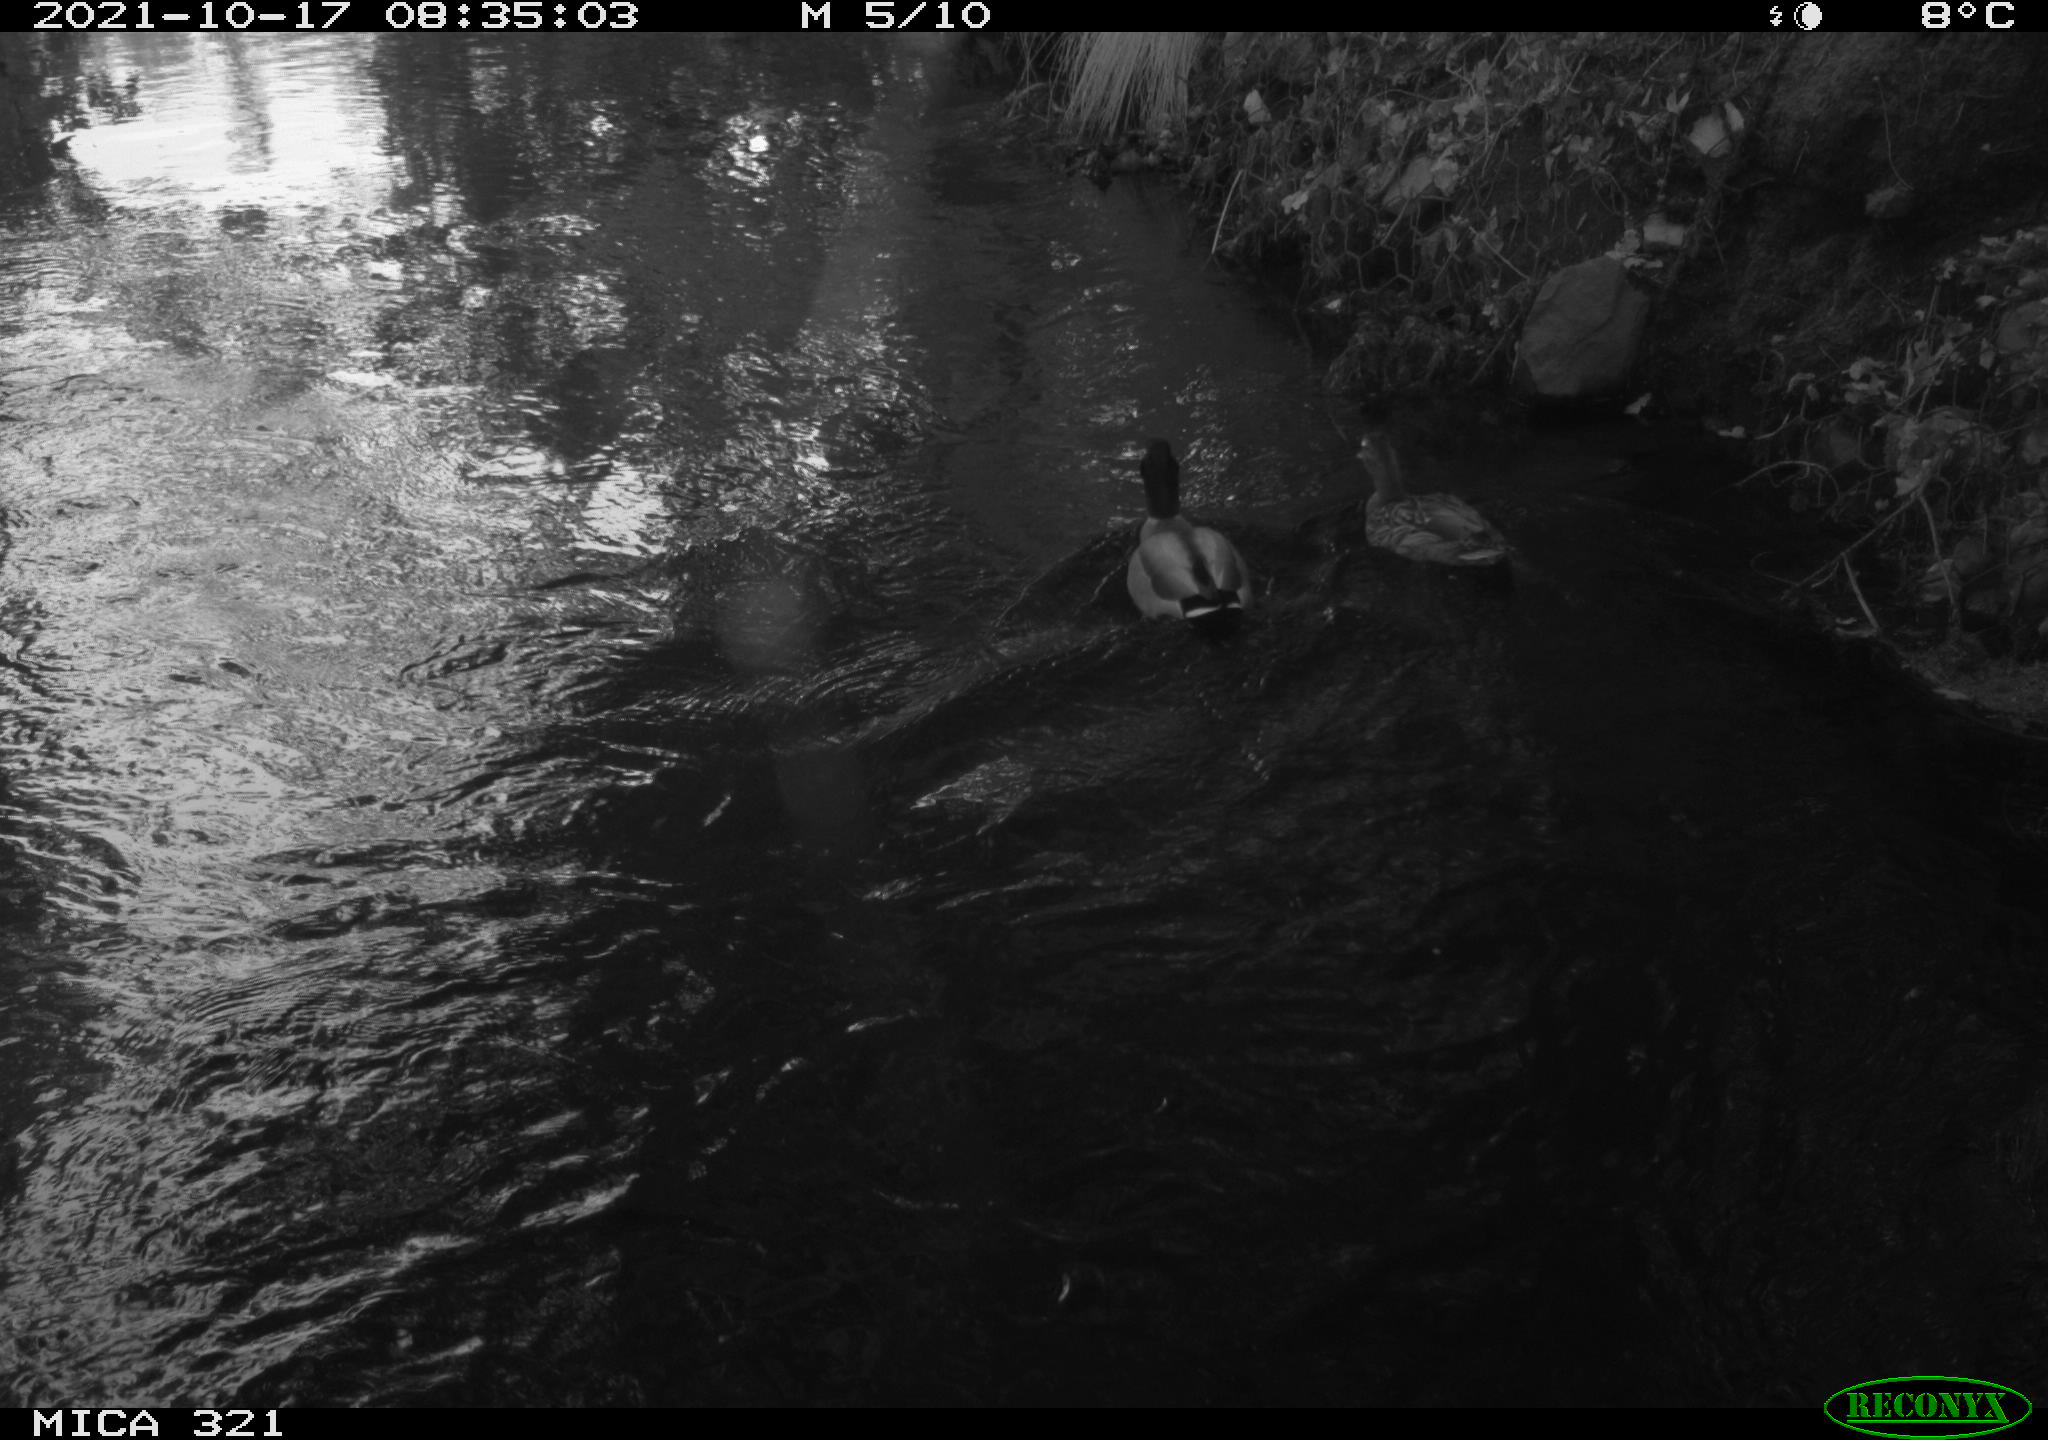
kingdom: Animalia
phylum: Chordata
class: Aves
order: Anseriformes
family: Anatidae
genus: Anas
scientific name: Anas platyrhynchos
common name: Mallard
